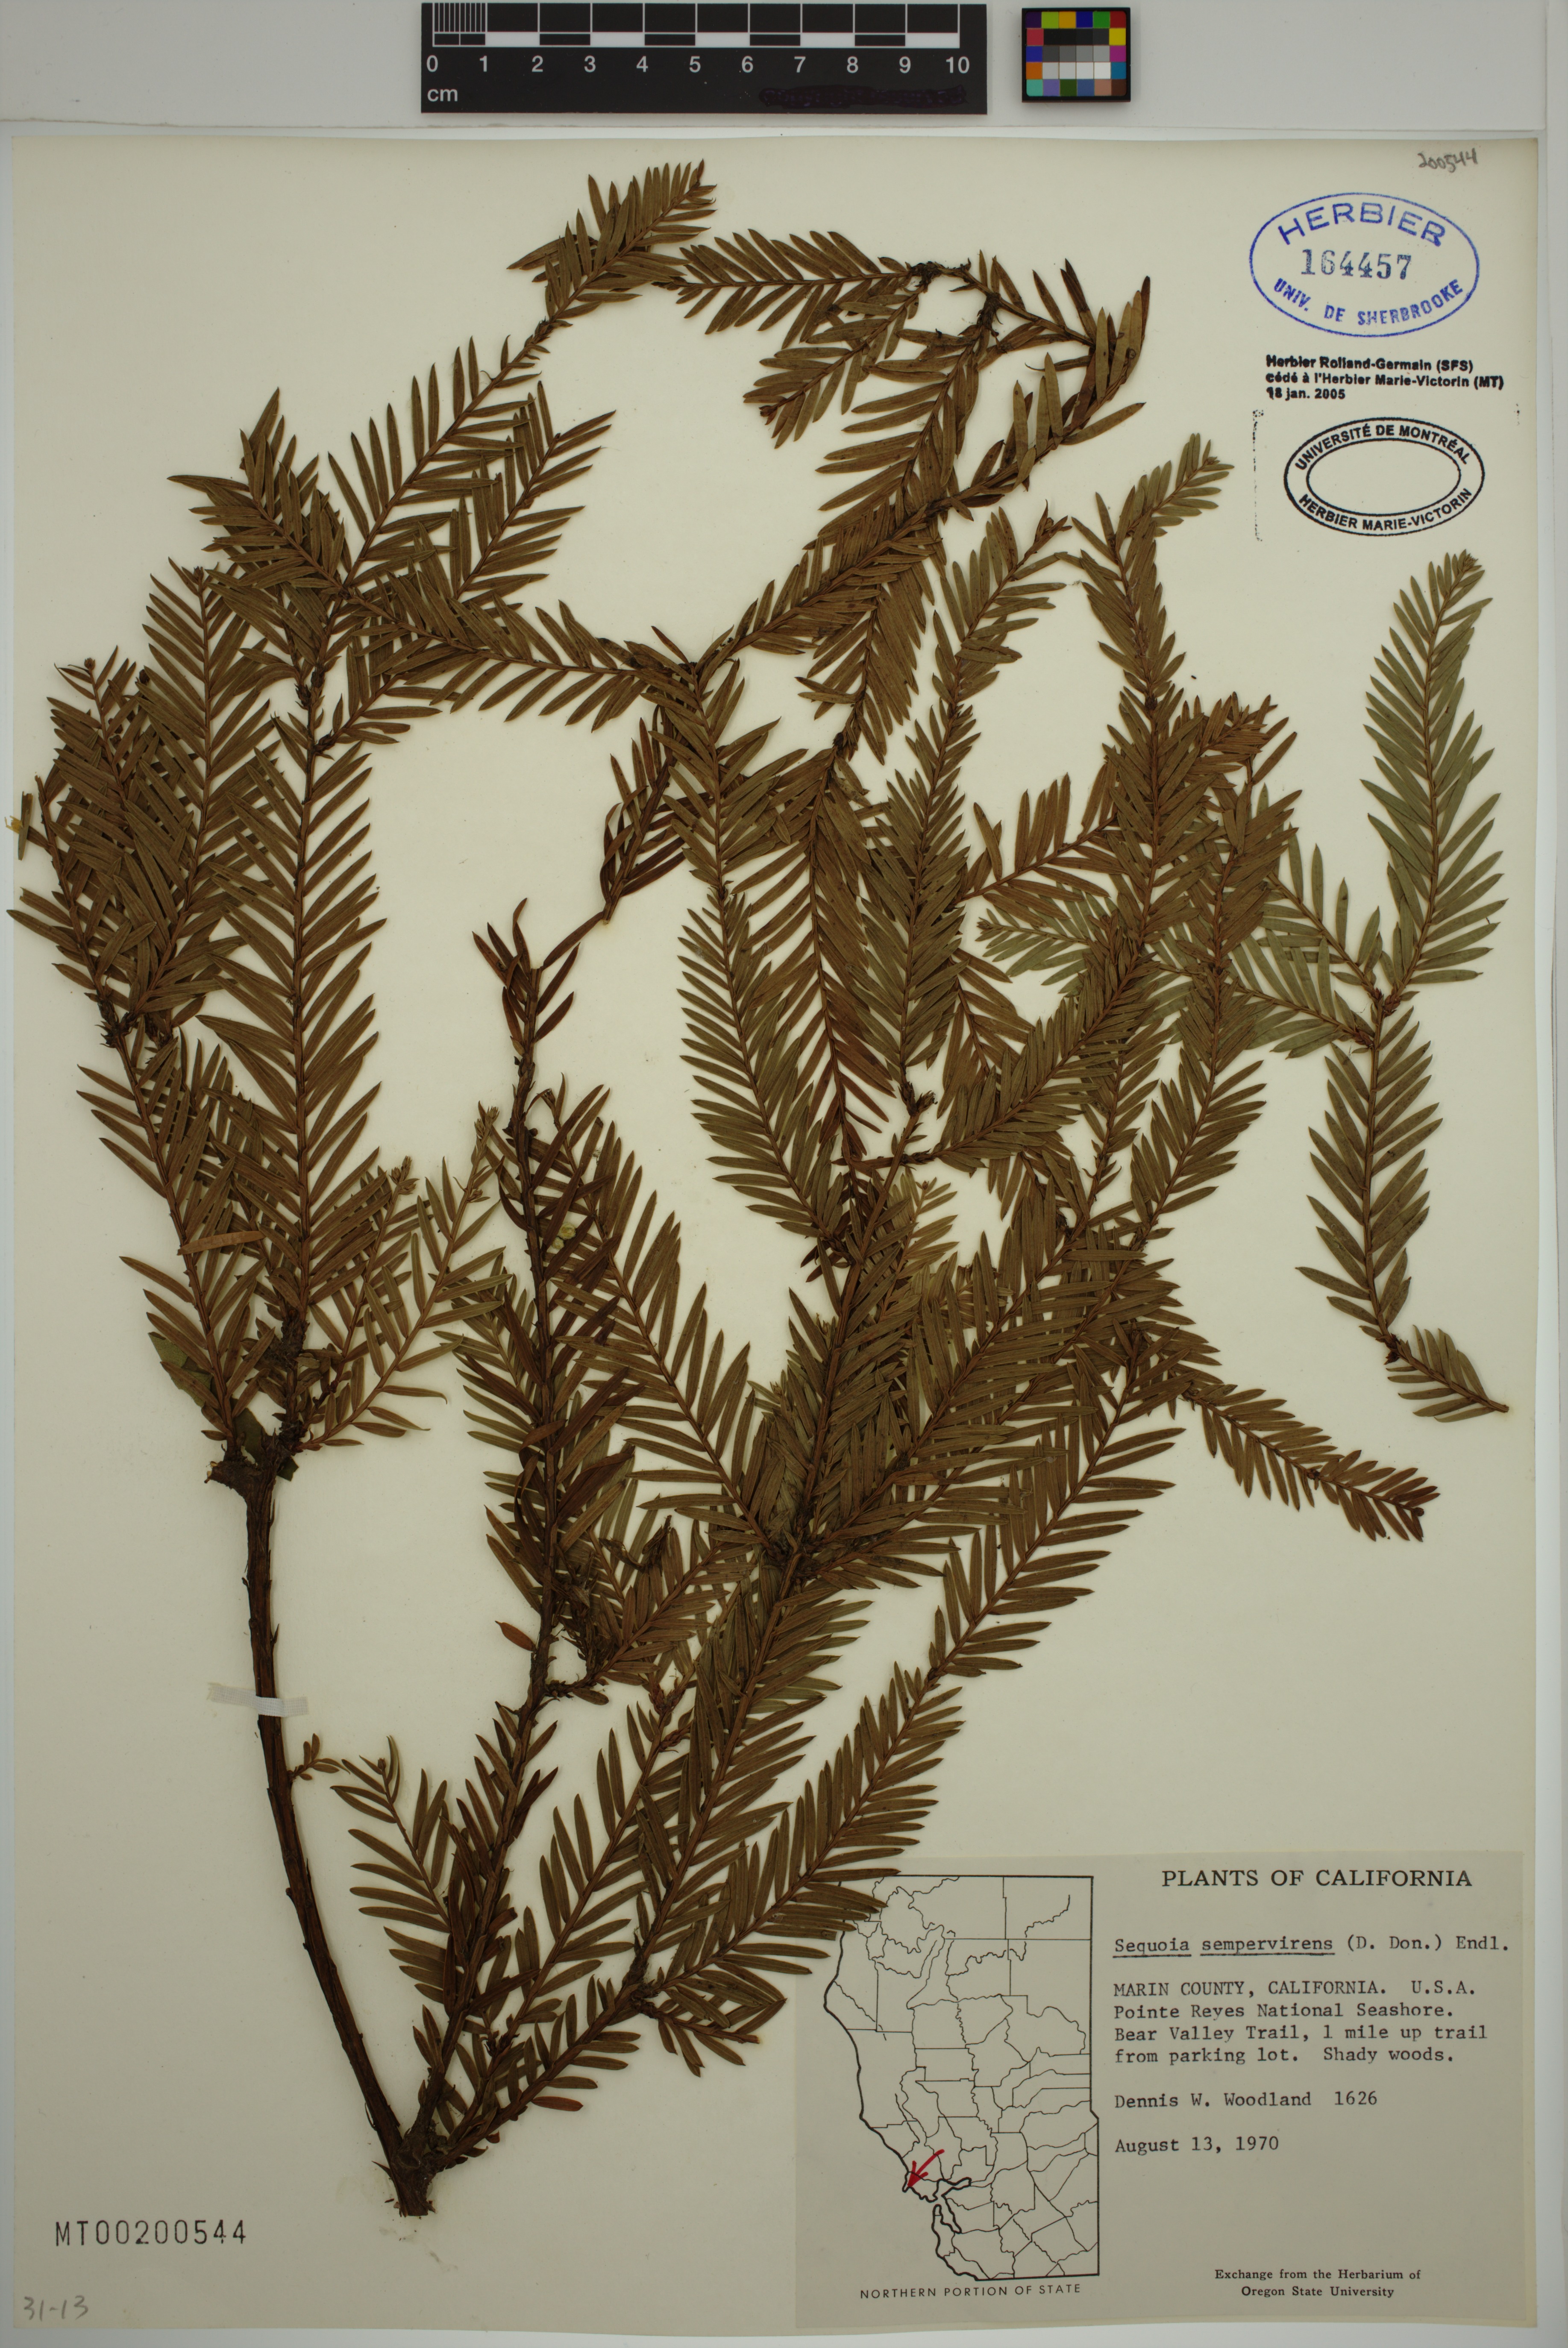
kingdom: Plantae
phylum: Tracheophyta
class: Pinopsida
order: Pinales
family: Cupressaceae
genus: Sequoia
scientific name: Sequoia sempervirens
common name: Coast redwood
